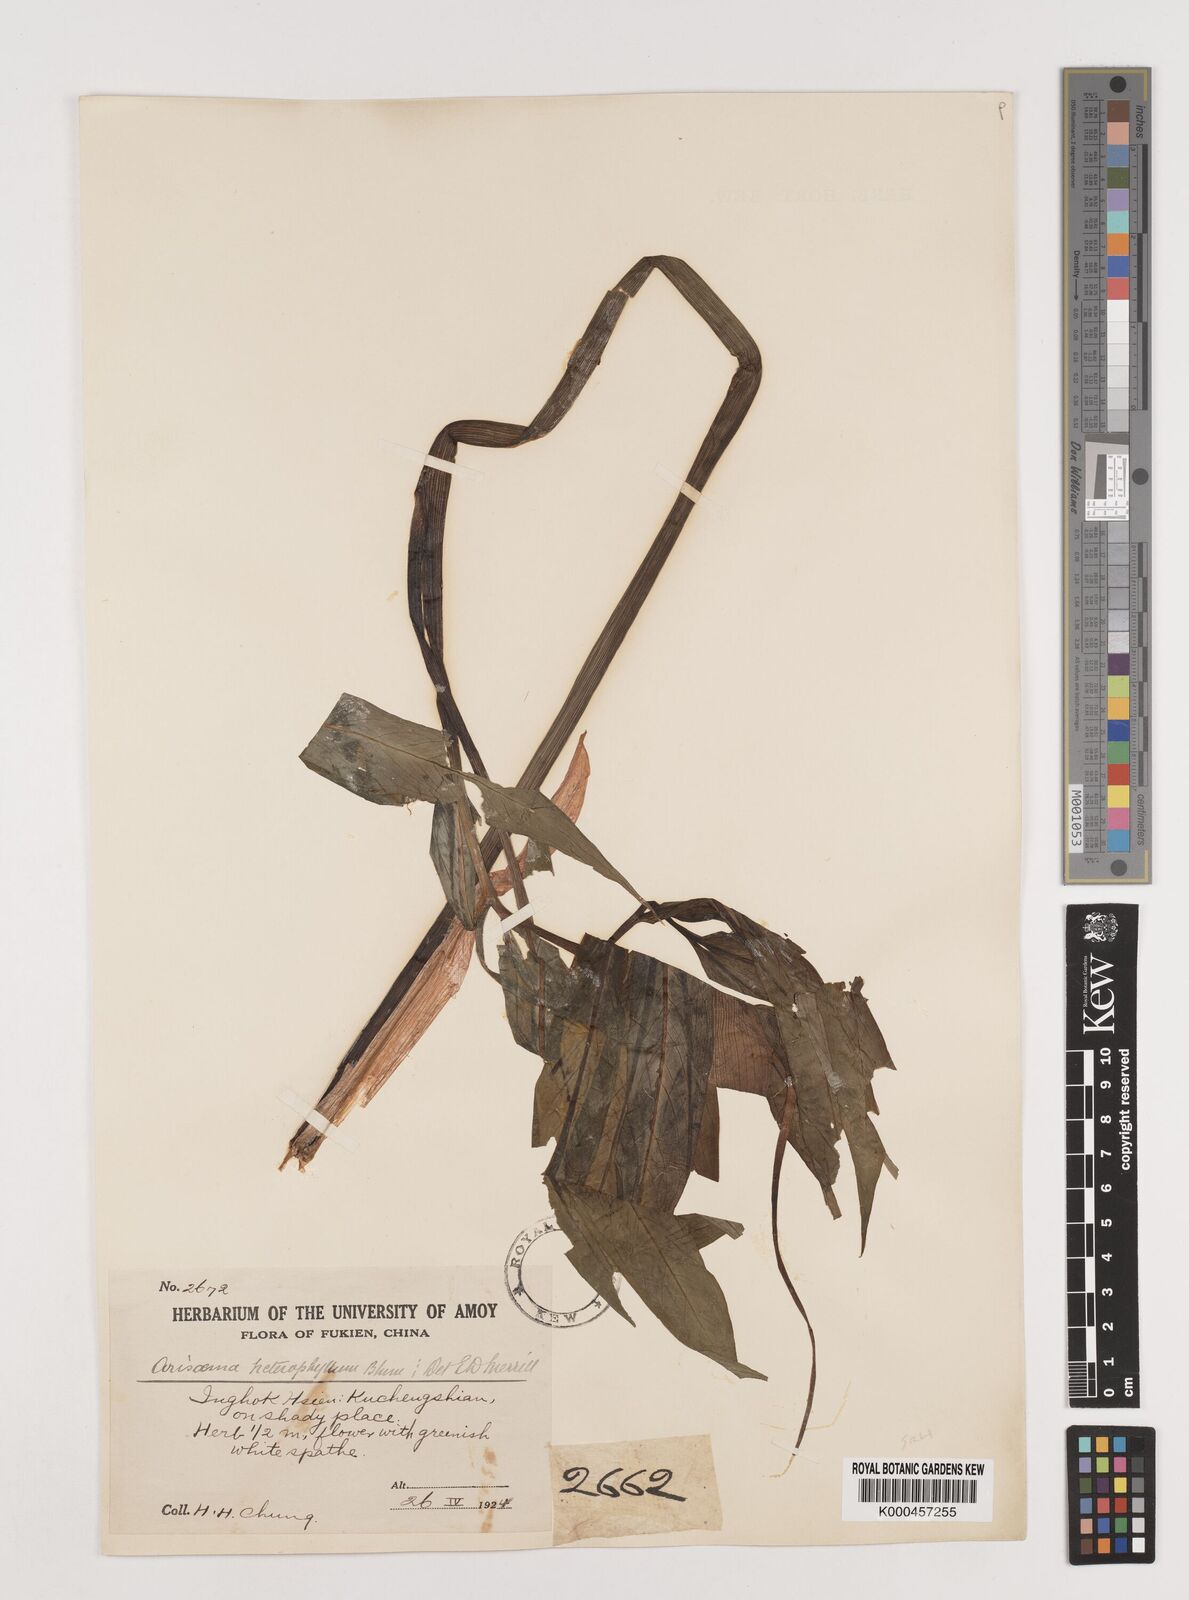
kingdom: Plantae
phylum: Tracheophyta
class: Liliopsida
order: Alismatales
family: Araceae
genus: Arisaema
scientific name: Arisaema heterophyllum
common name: Dancing crane cobra lily
